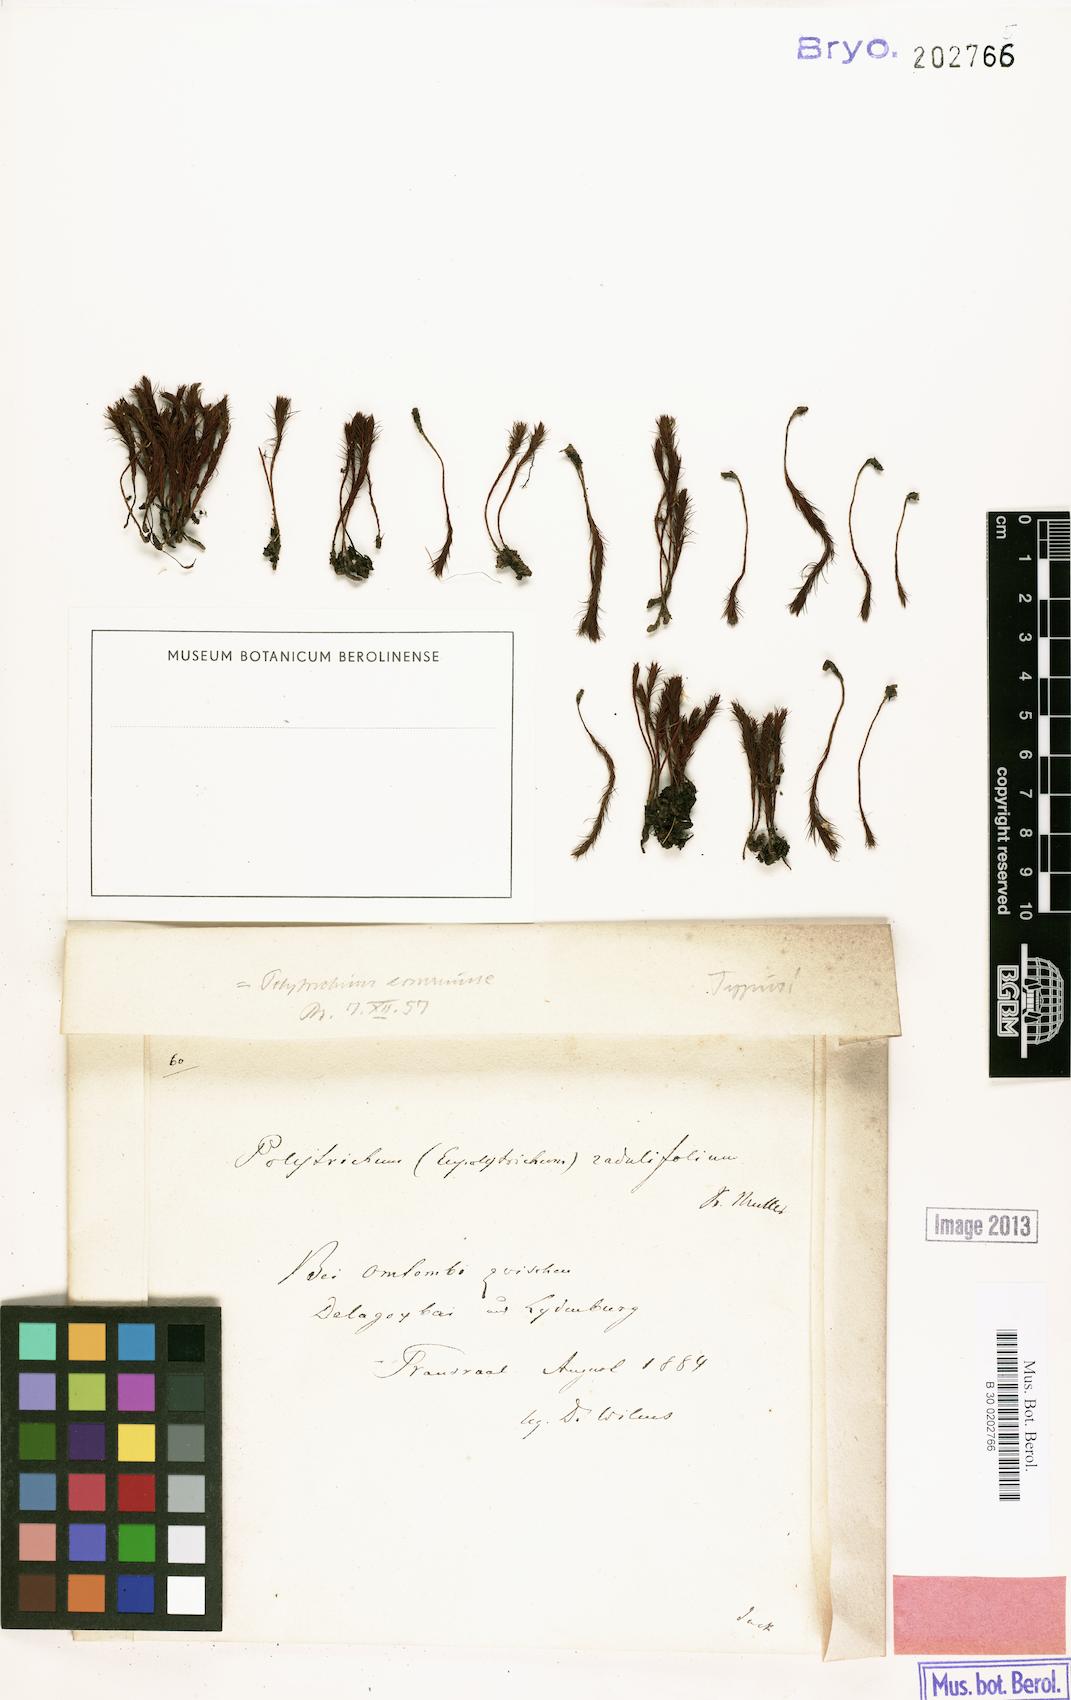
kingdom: Plantae
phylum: Bryophyta
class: Polytrichopsida
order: Polytrichales
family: Polytrichaceae
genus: Polytrichum
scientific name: Polytrichum commune
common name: Common haircap
